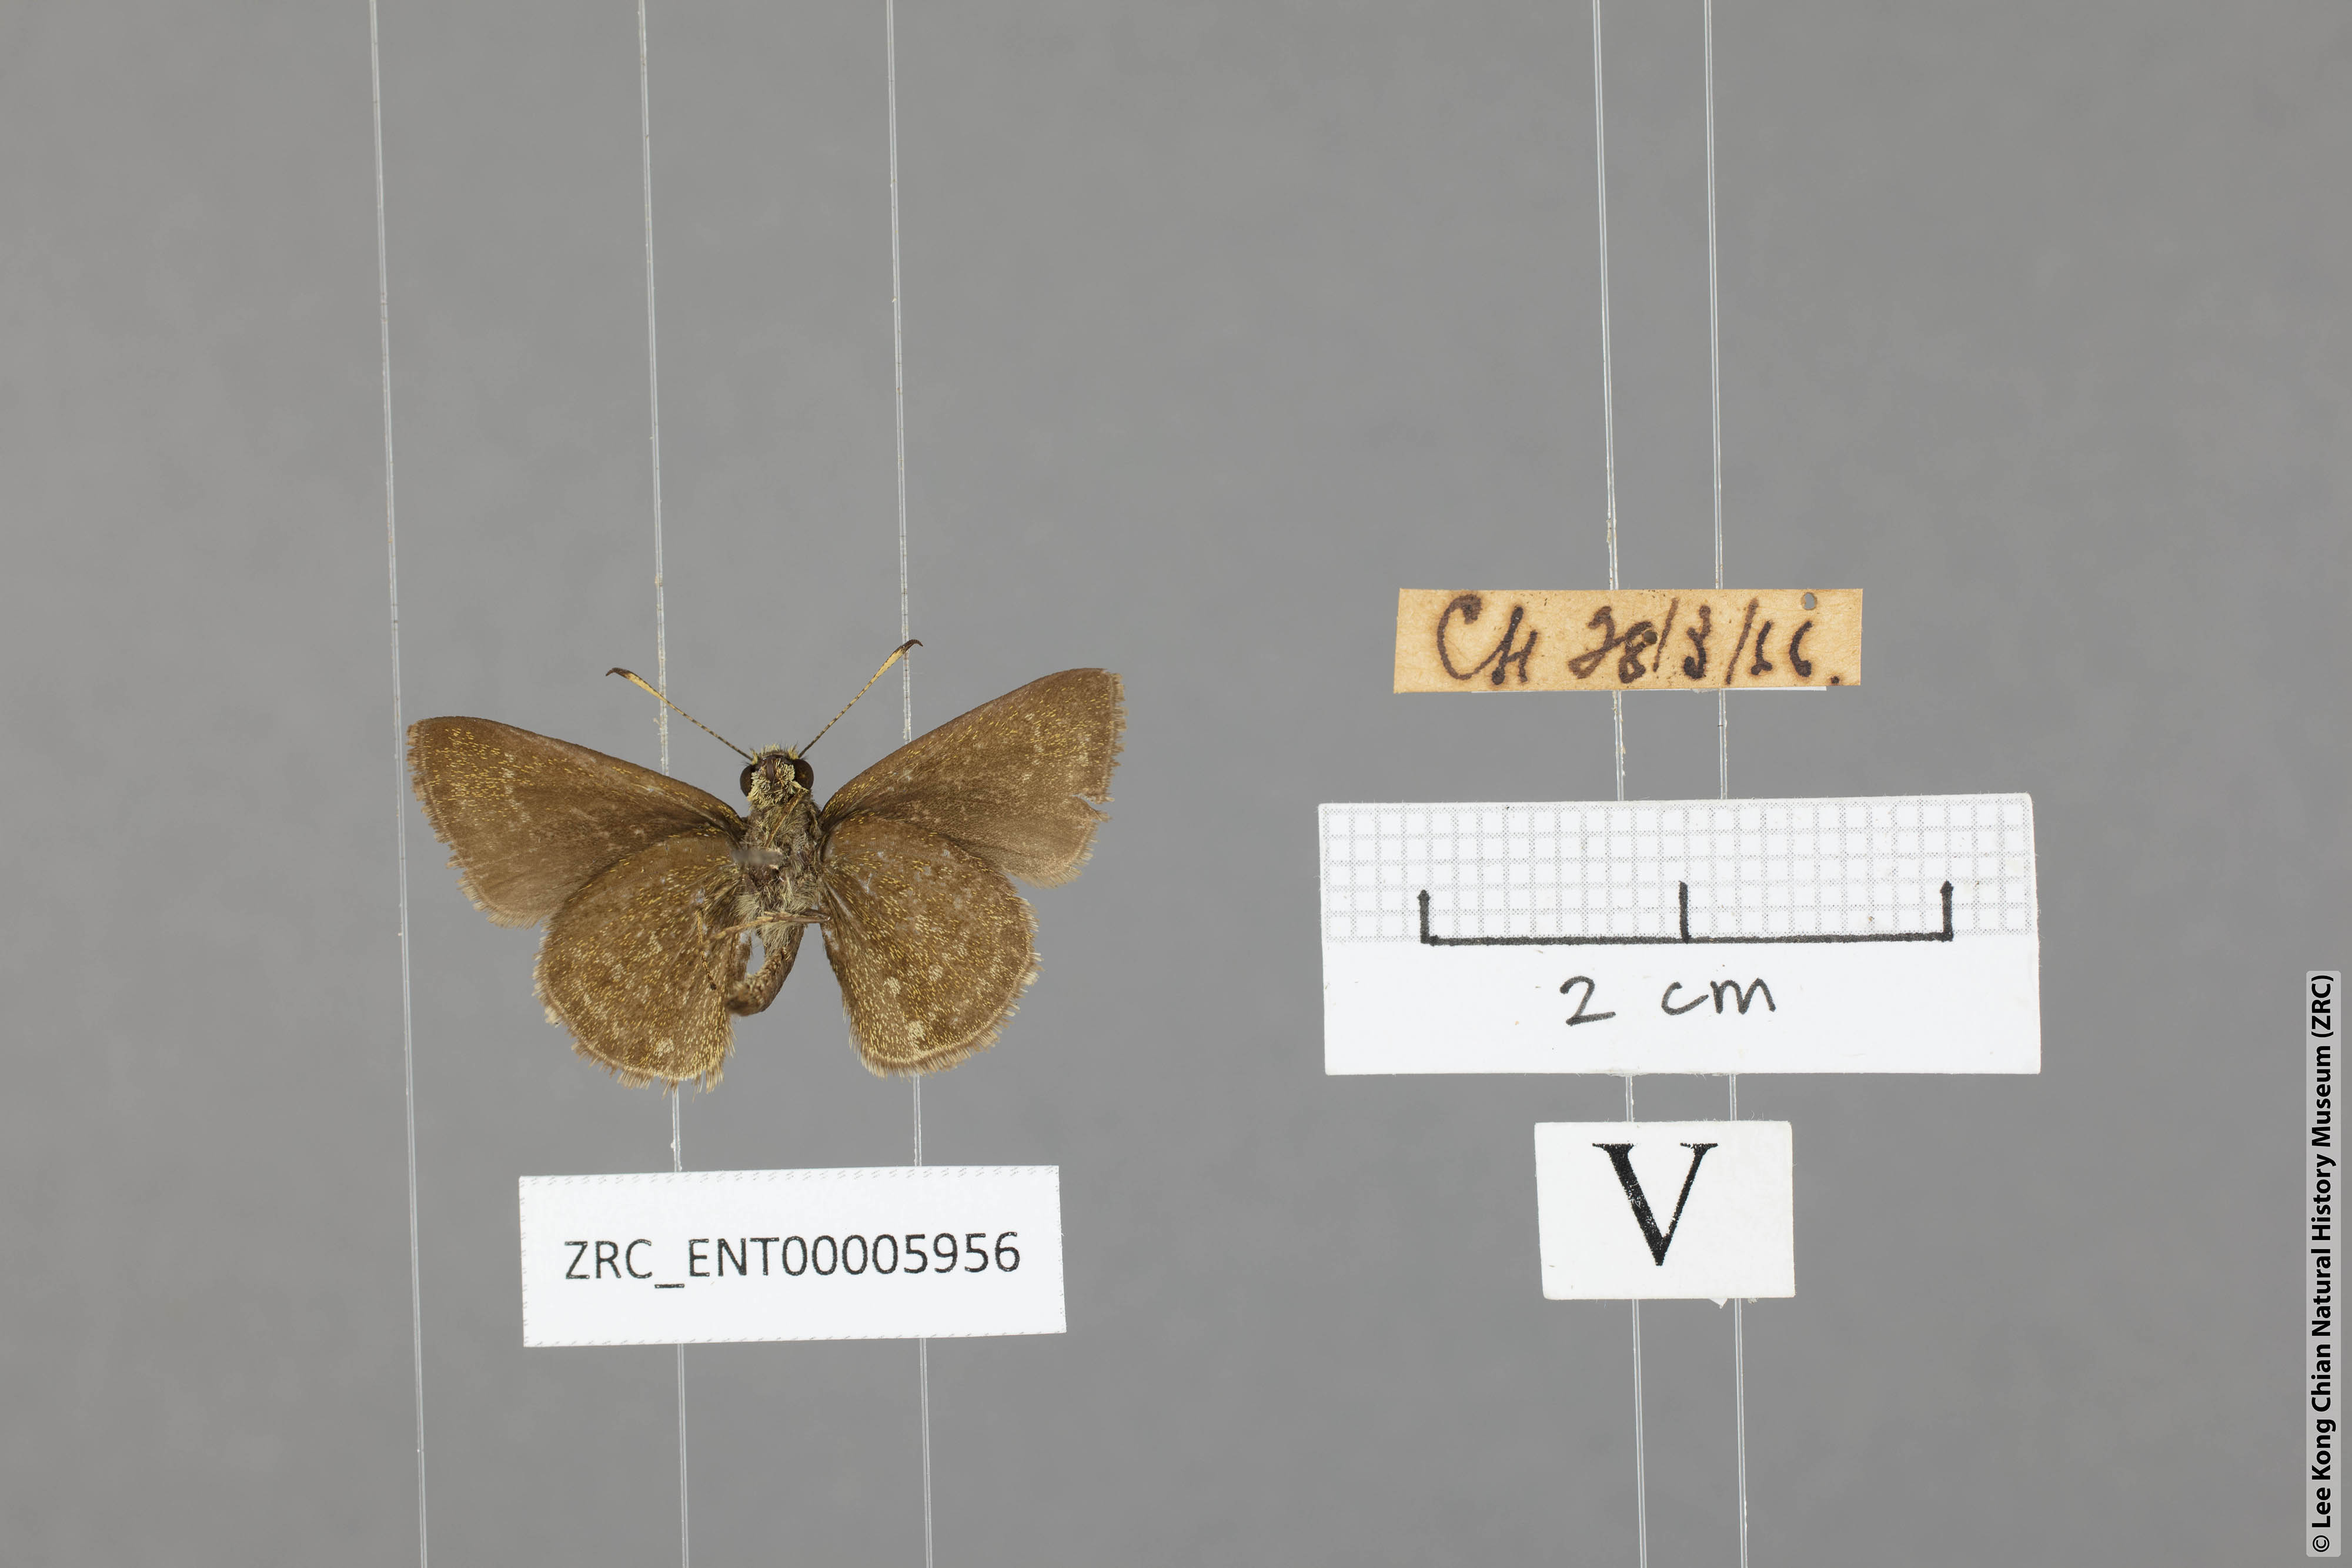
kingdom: Animalia
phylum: Arthropoda
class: Insecta
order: Lepidoptera
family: Hesperiidae
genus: Aeromachus
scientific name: Aeromachus jhora
